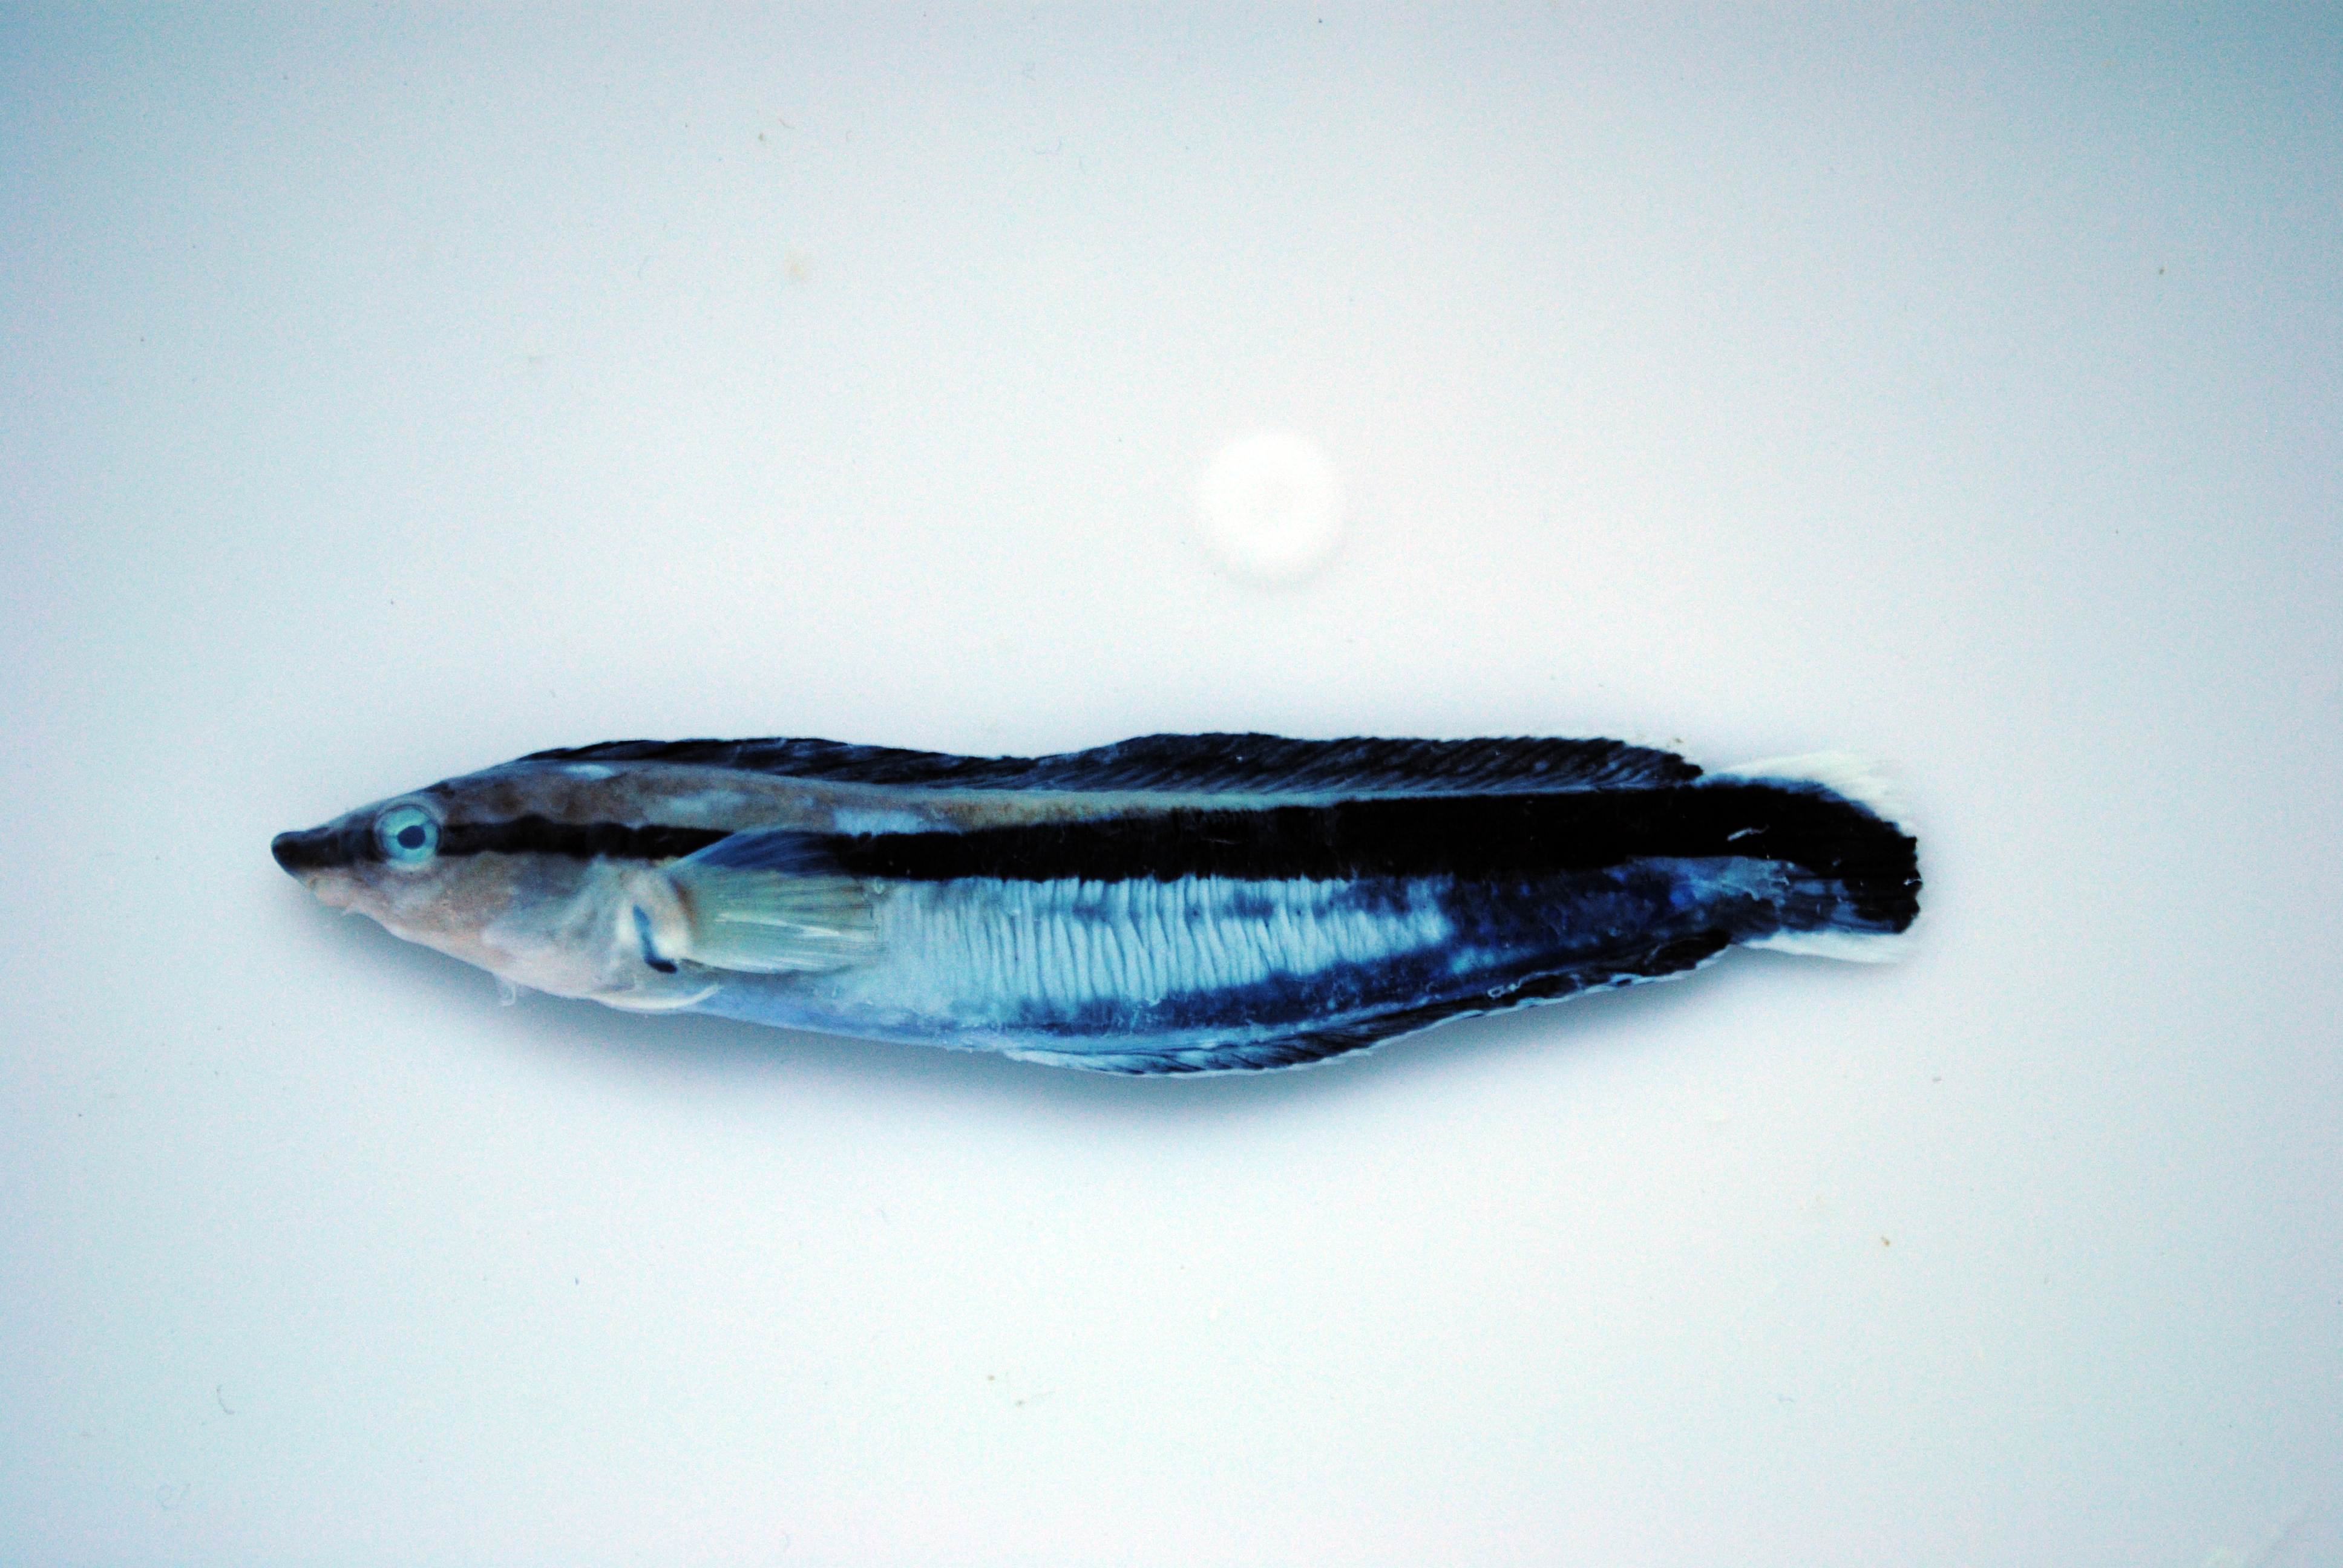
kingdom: Animalia
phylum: Chordata
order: Perciformes
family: Blenniidae
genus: Aspidontus
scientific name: Aspidontus tractus
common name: Mimic blenny
